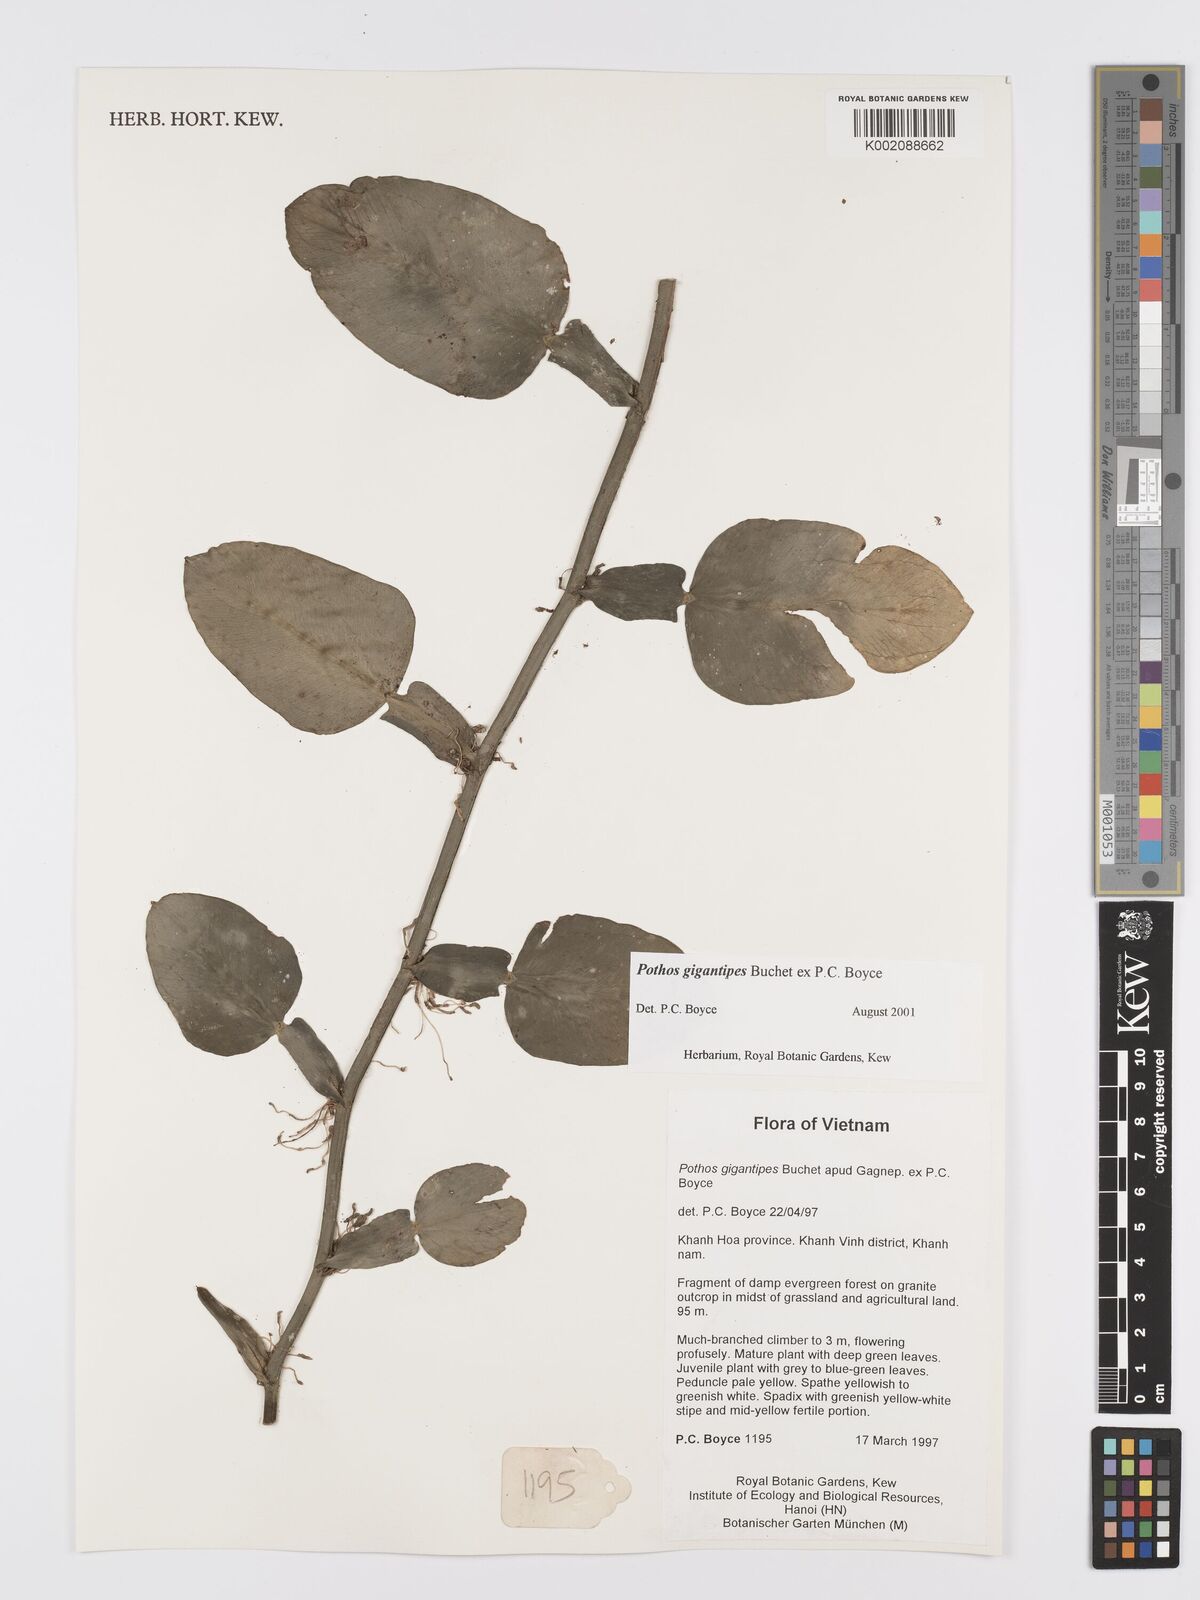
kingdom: Plantae
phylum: Tracheophyta
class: Liliopsida
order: Alismatales
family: Araceae
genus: Pothos
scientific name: Pothos gigantipes
